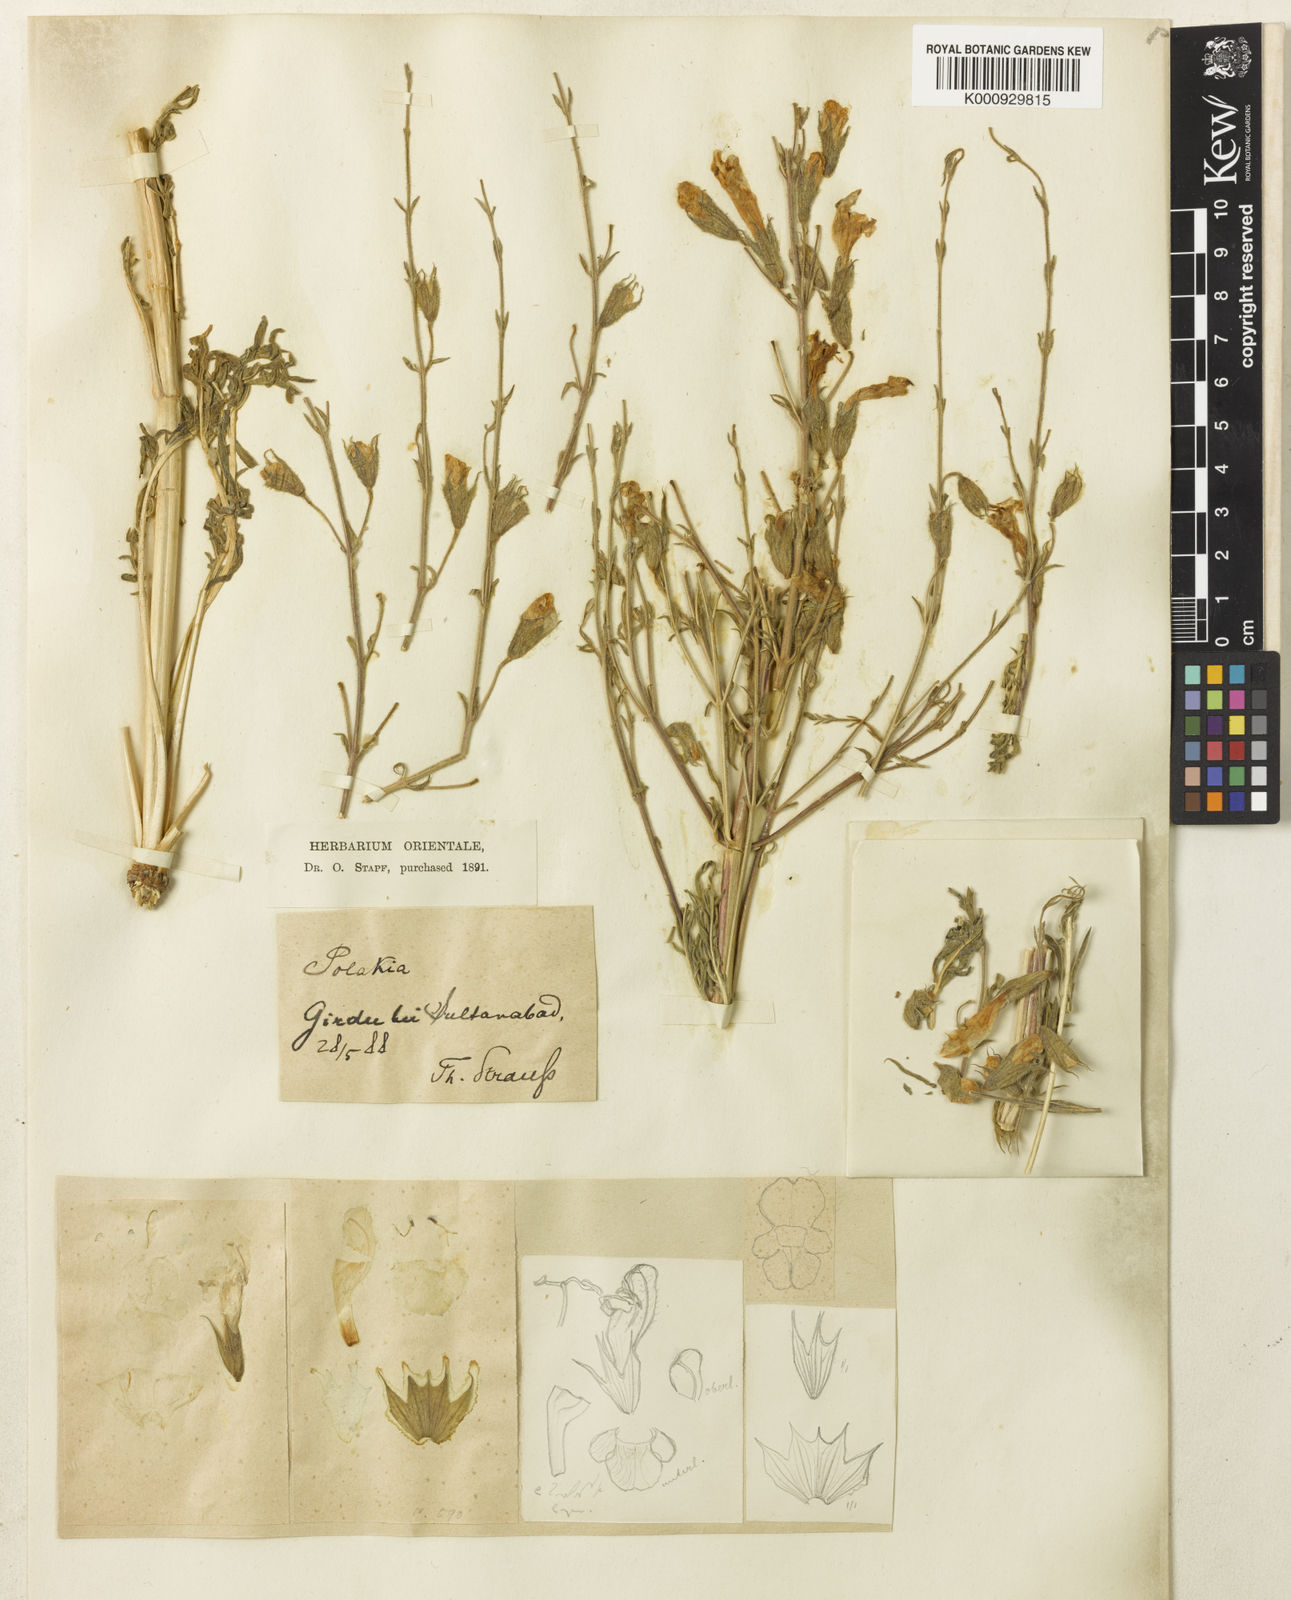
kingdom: Plantae
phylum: Tracheophyta
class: Magnoliopsida
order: Lamiales
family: Lamiaceae
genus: Salvia
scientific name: Salvia
